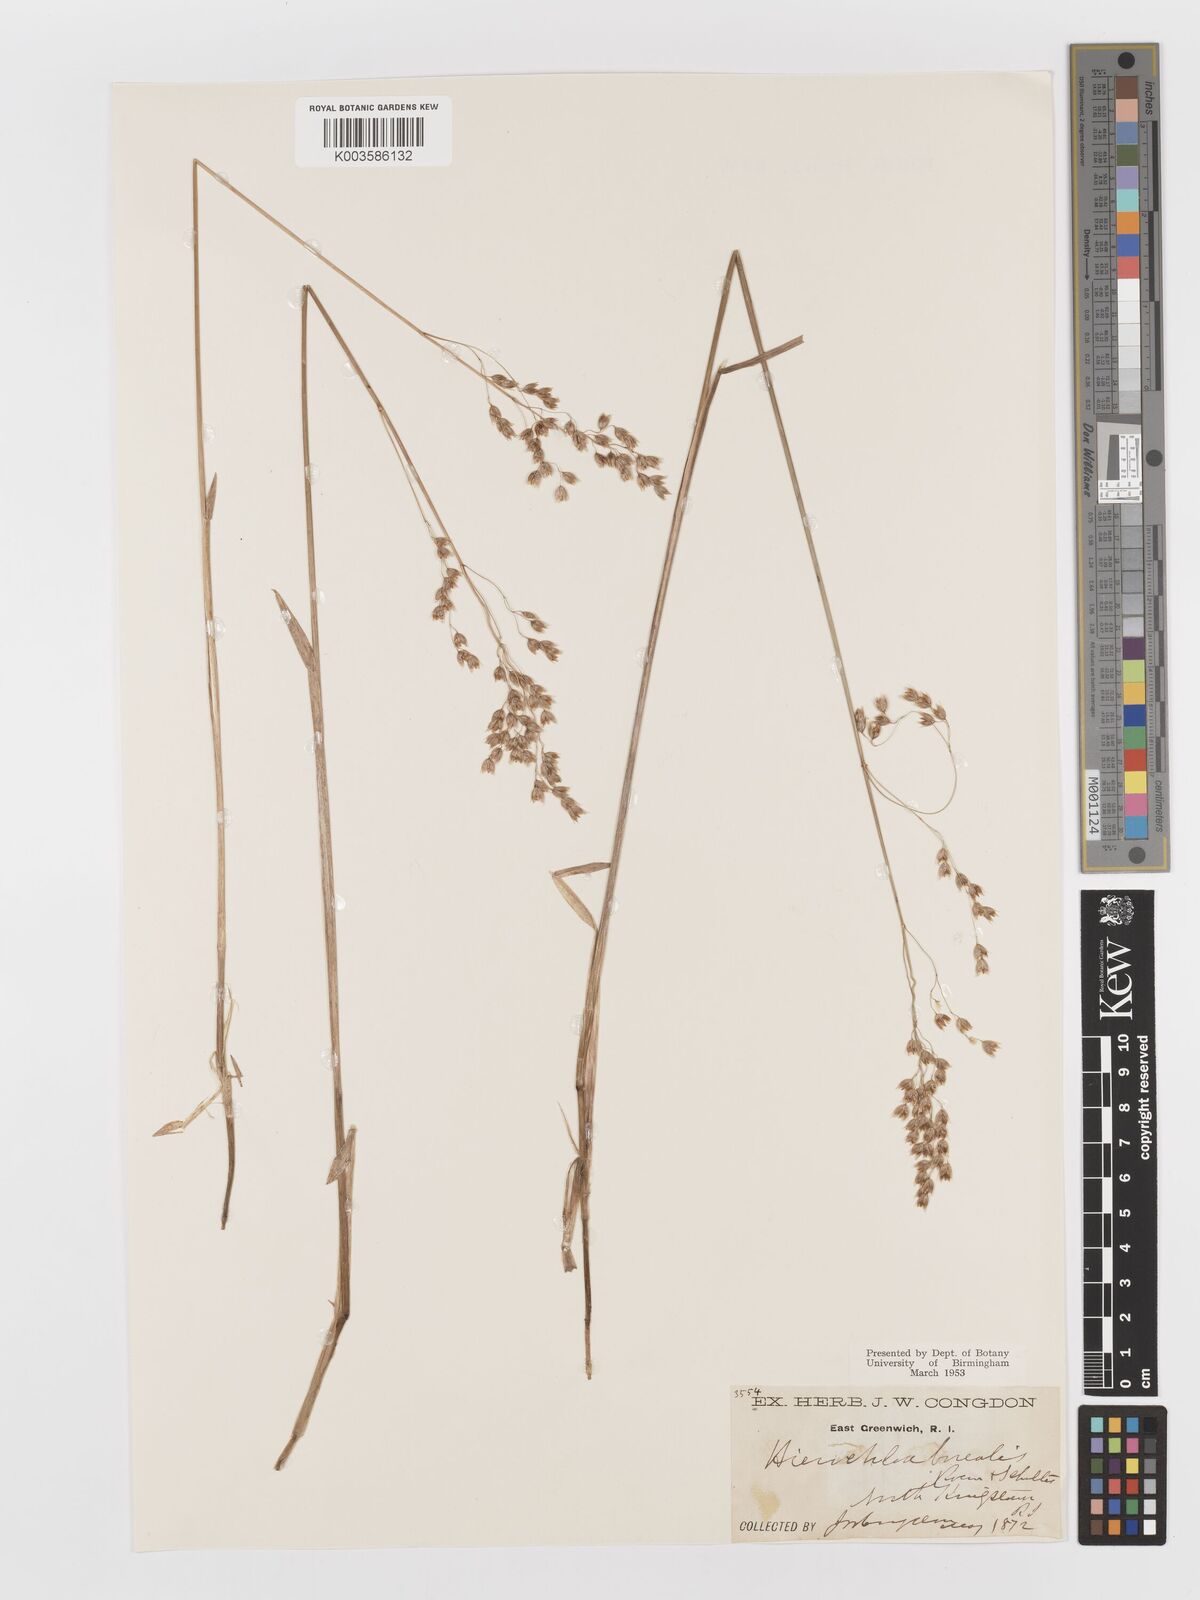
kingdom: Plantae
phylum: Tracheophyta
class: Liliopsida
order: Poales
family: Poaceae
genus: Anthoxanthum
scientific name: Anthoxanthum nitens
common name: Holy grass
